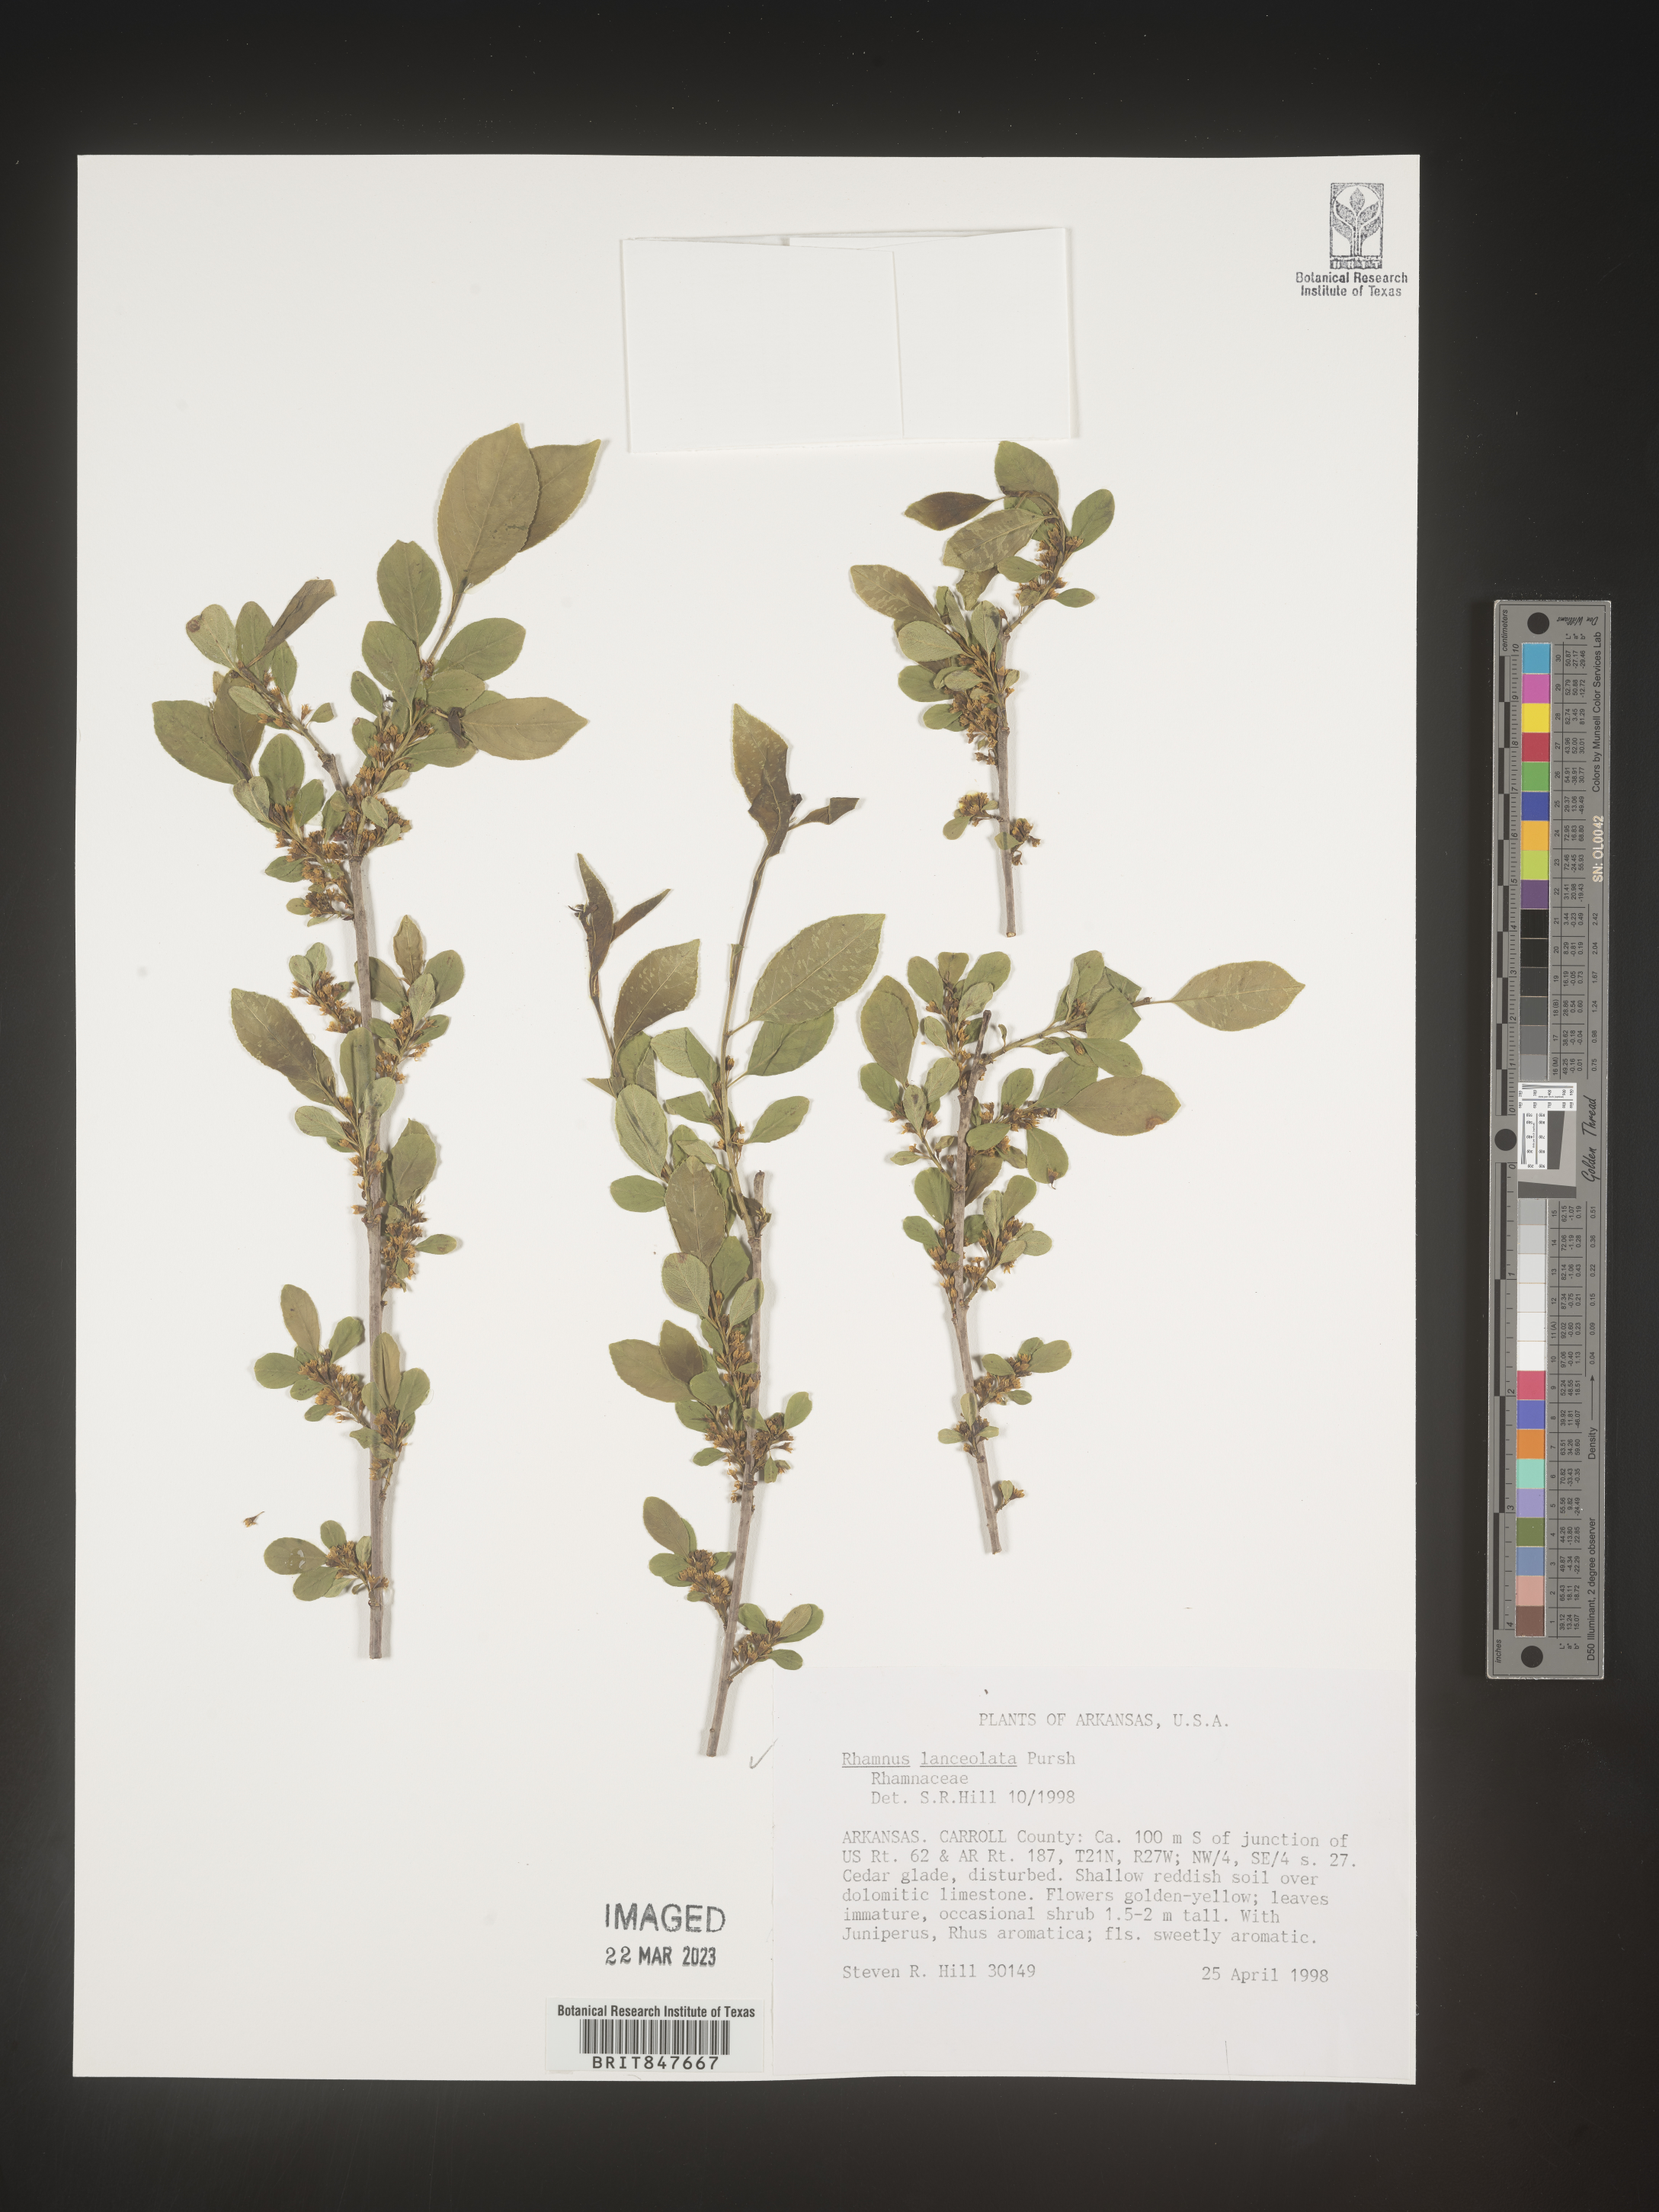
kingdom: Plantae
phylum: Tracheophyta
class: Magnoliopsida
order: Rosales
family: Rhamnaceae
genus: Endotropis
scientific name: Endotropis lanceolata
